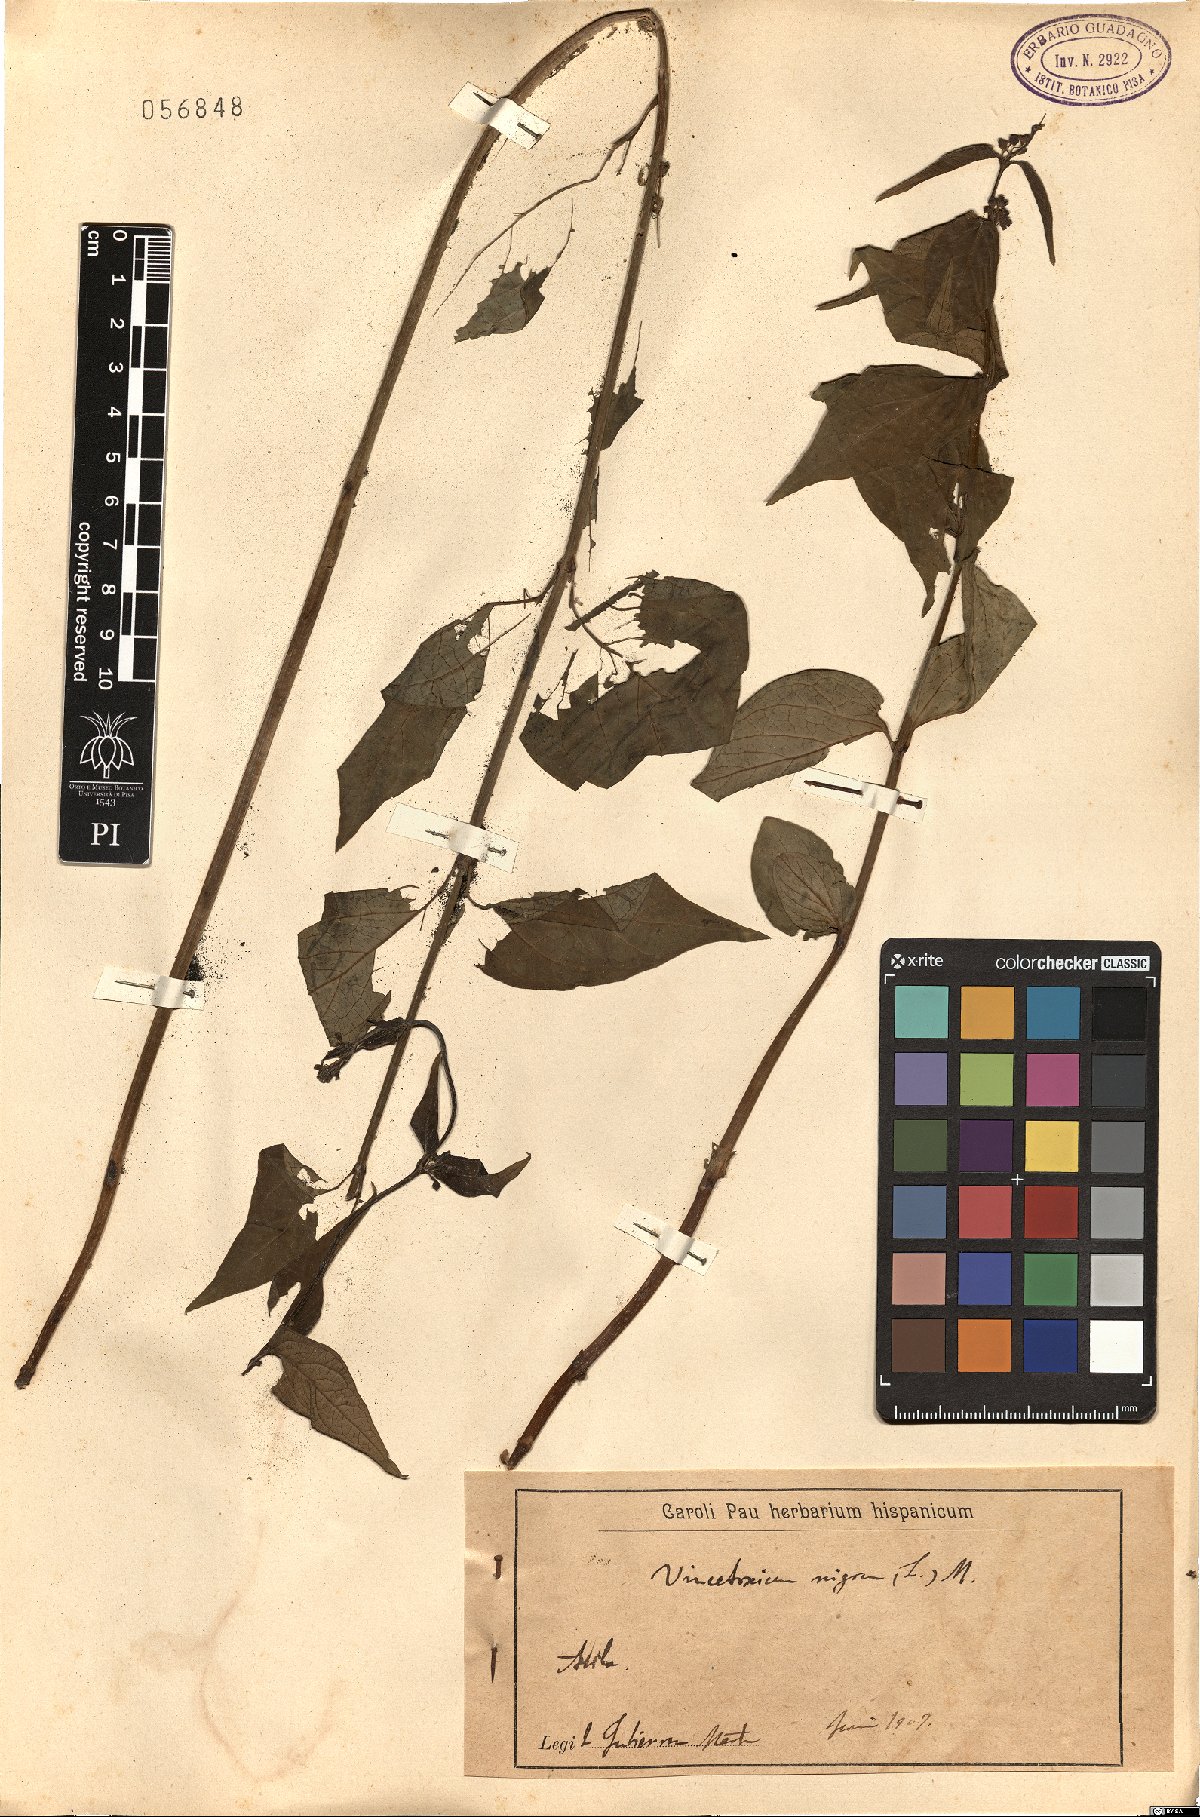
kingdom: Plantae
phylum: Tracheophyta
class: Magnoliopsida
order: Gentianales
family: Apocynaceae
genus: Vincetoxicum
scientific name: Vincetoxicum nigrum
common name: Black swallow-wort
